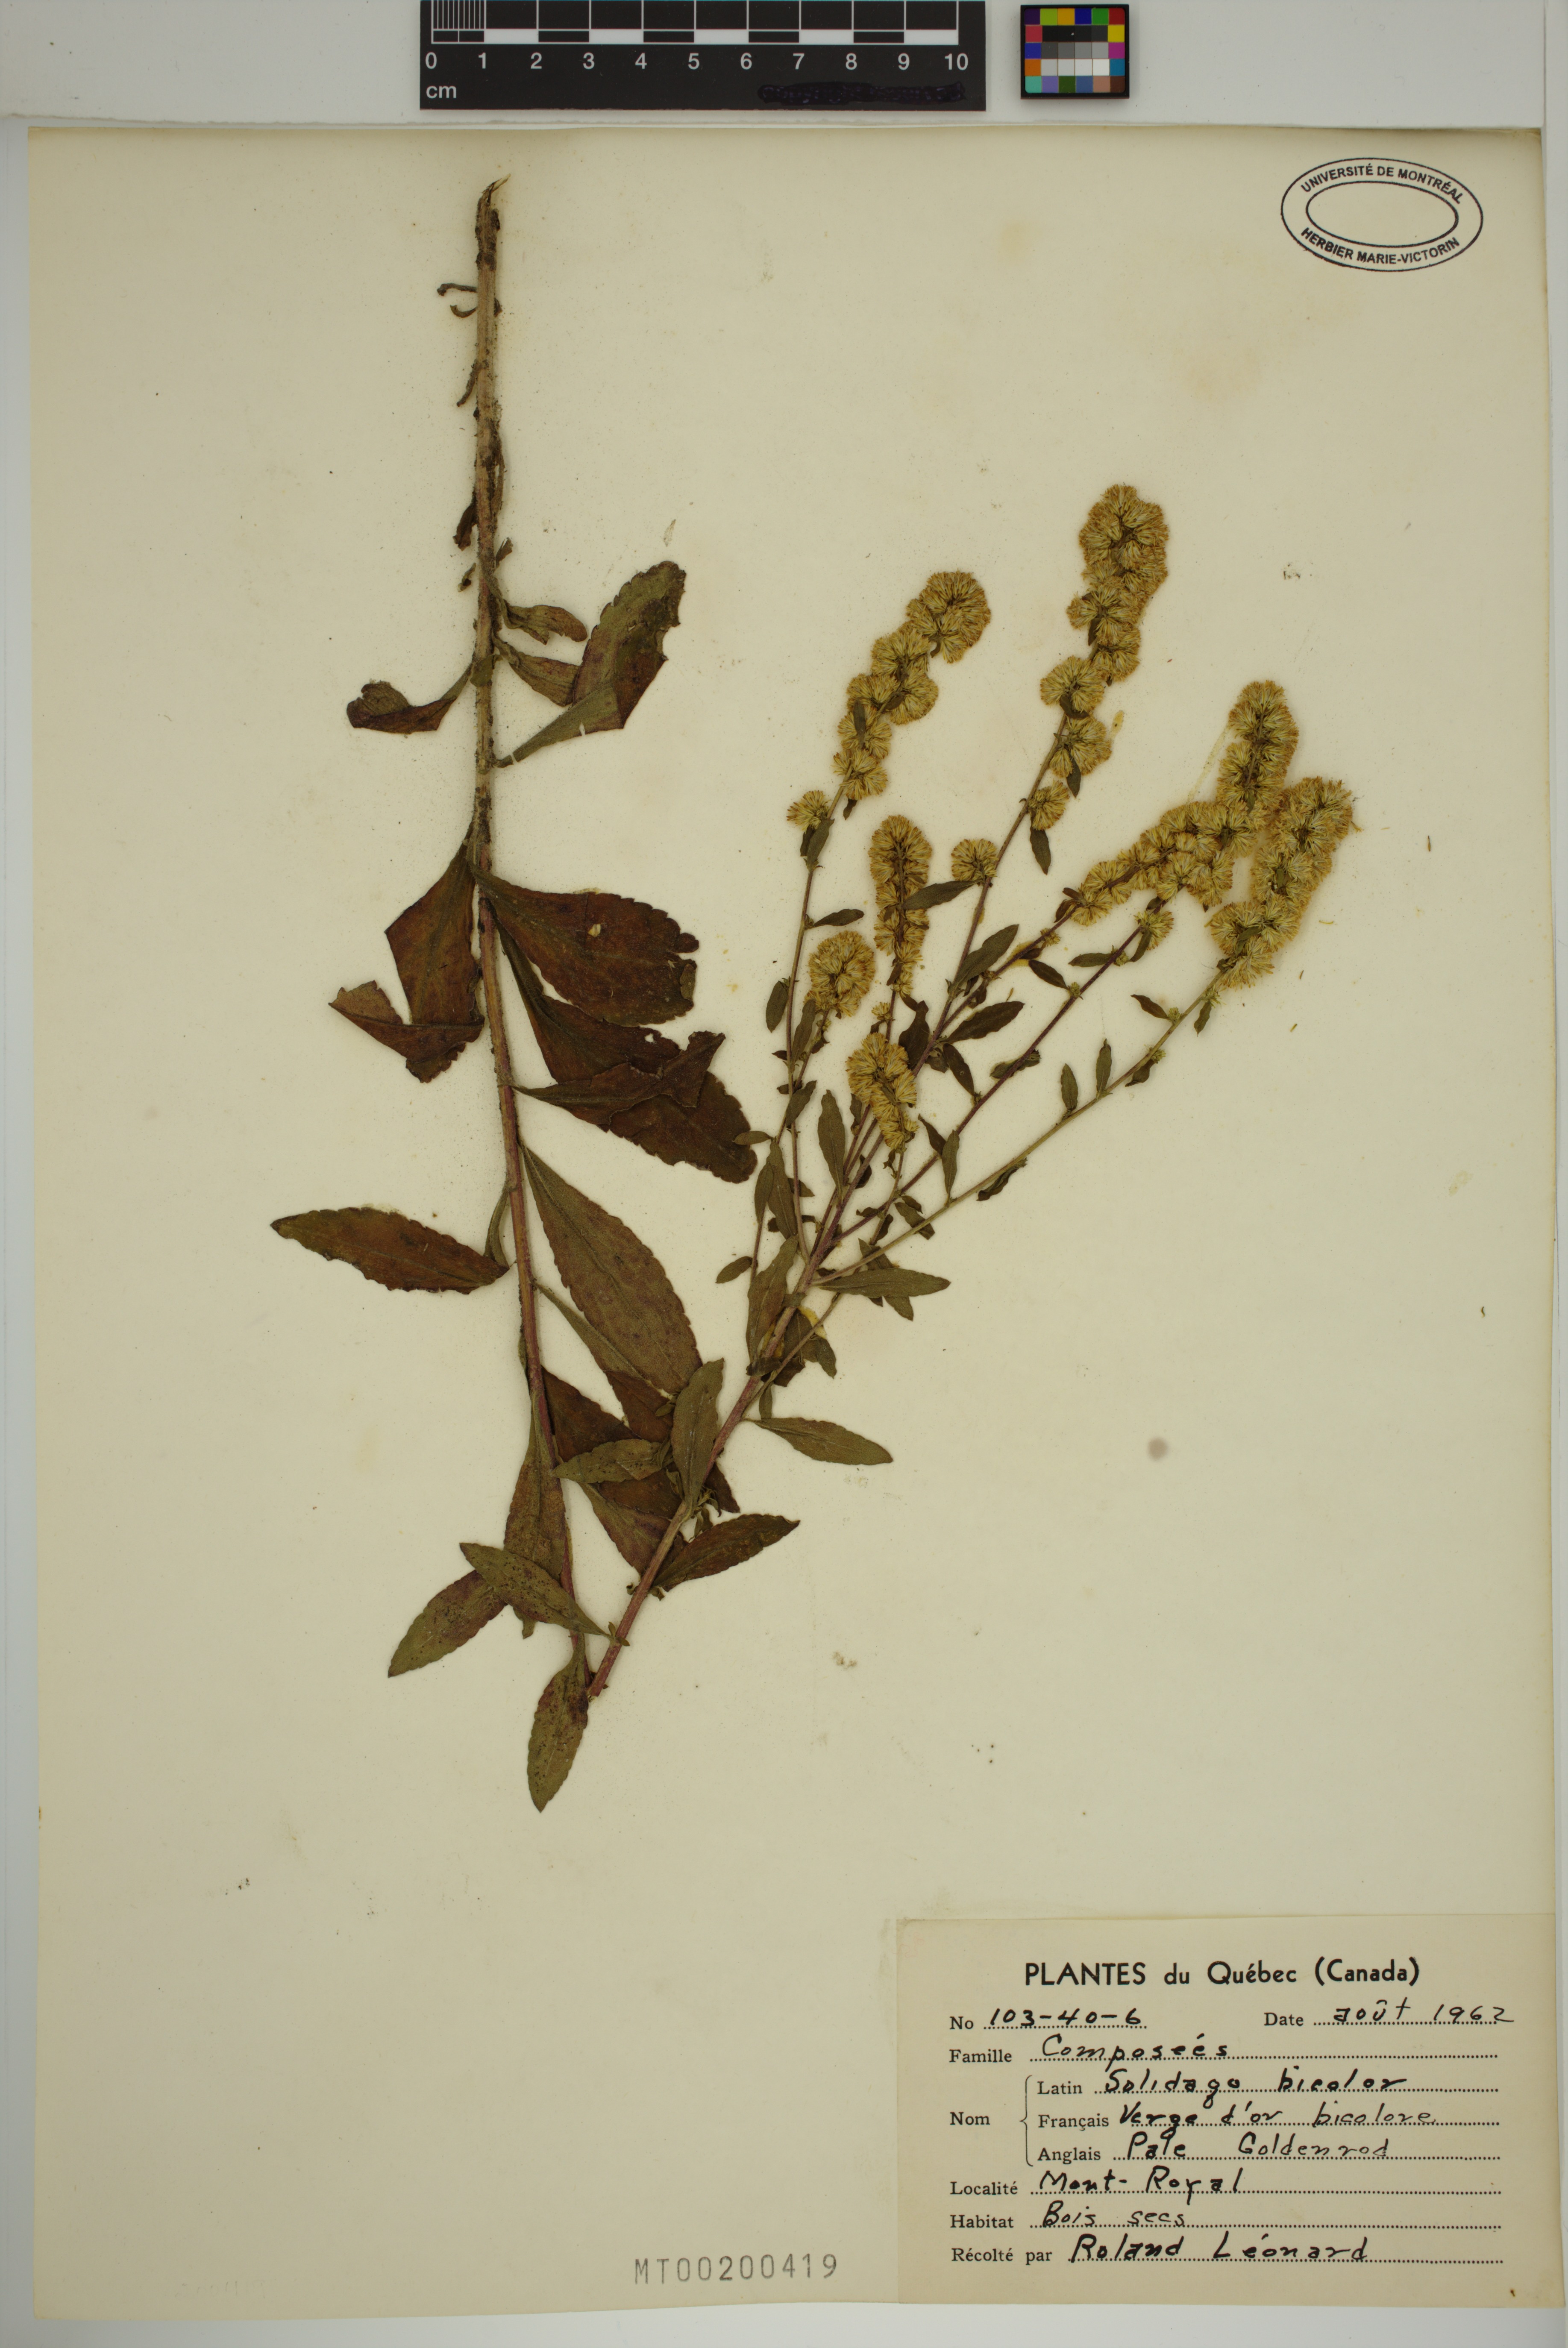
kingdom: Plantae
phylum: Tracheophyta
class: Magnoliopsida
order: Asterales
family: Asteraceae
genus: Solidago
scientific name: Solidago bicolor
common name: Silverrod
